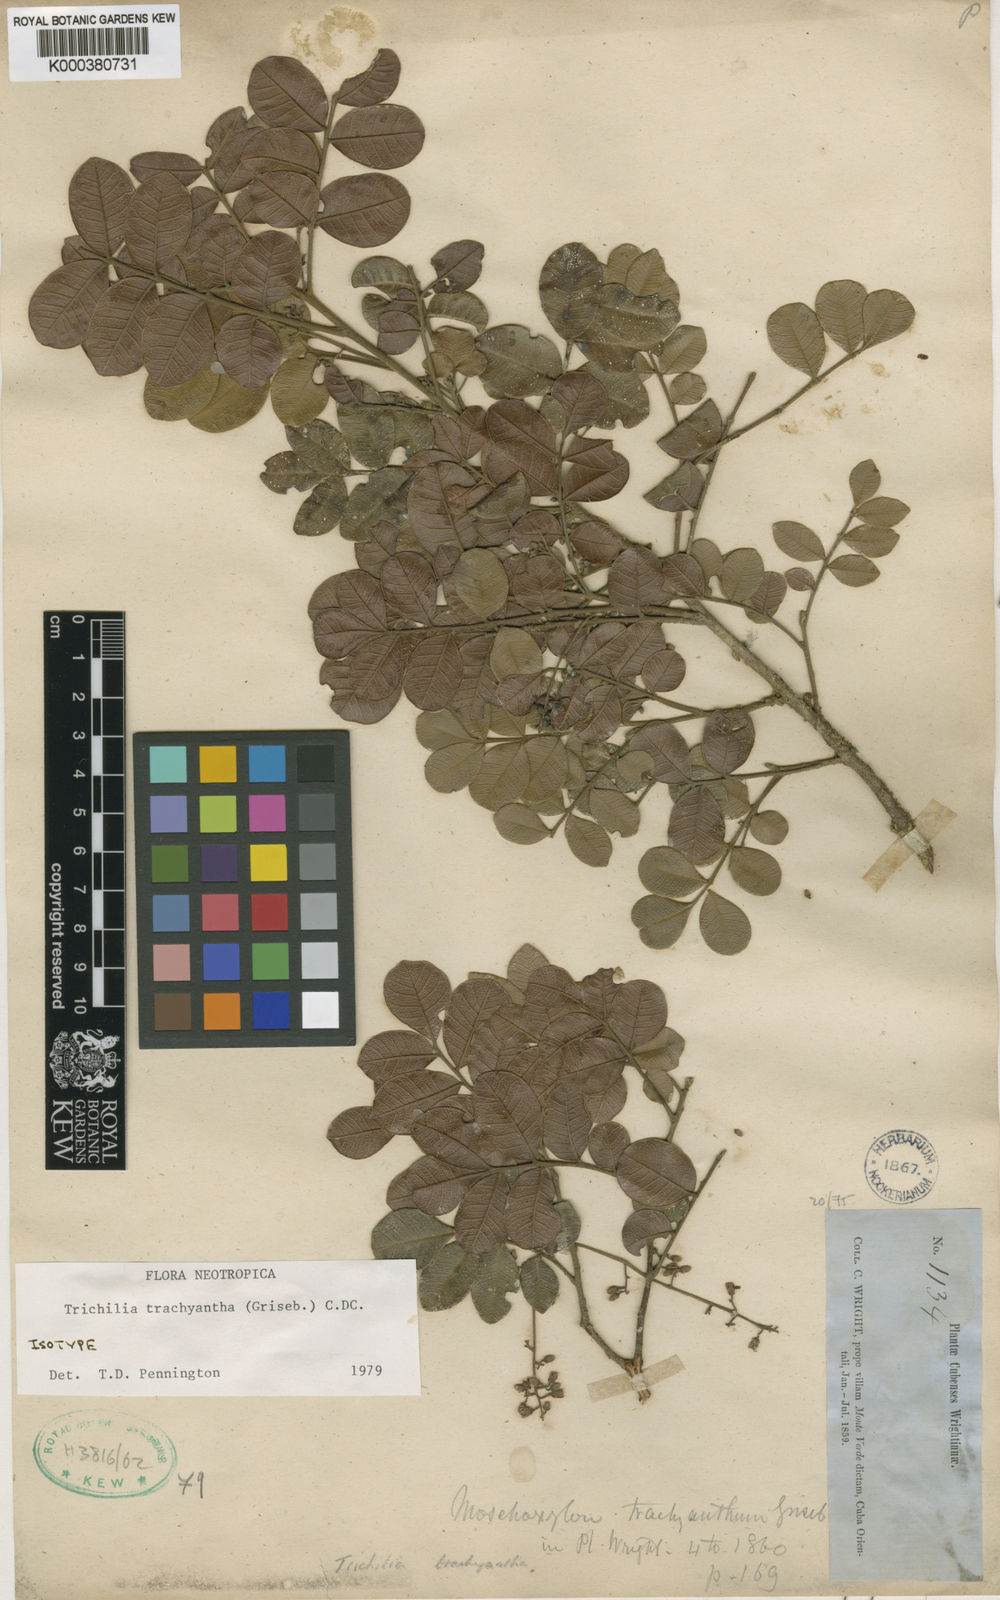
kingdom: Plantae
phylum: Tracheophyta
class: Magnoliopsida
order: Sapindales
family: Meliaceae
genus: Trichilia
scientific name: Trichilia trachyantha
